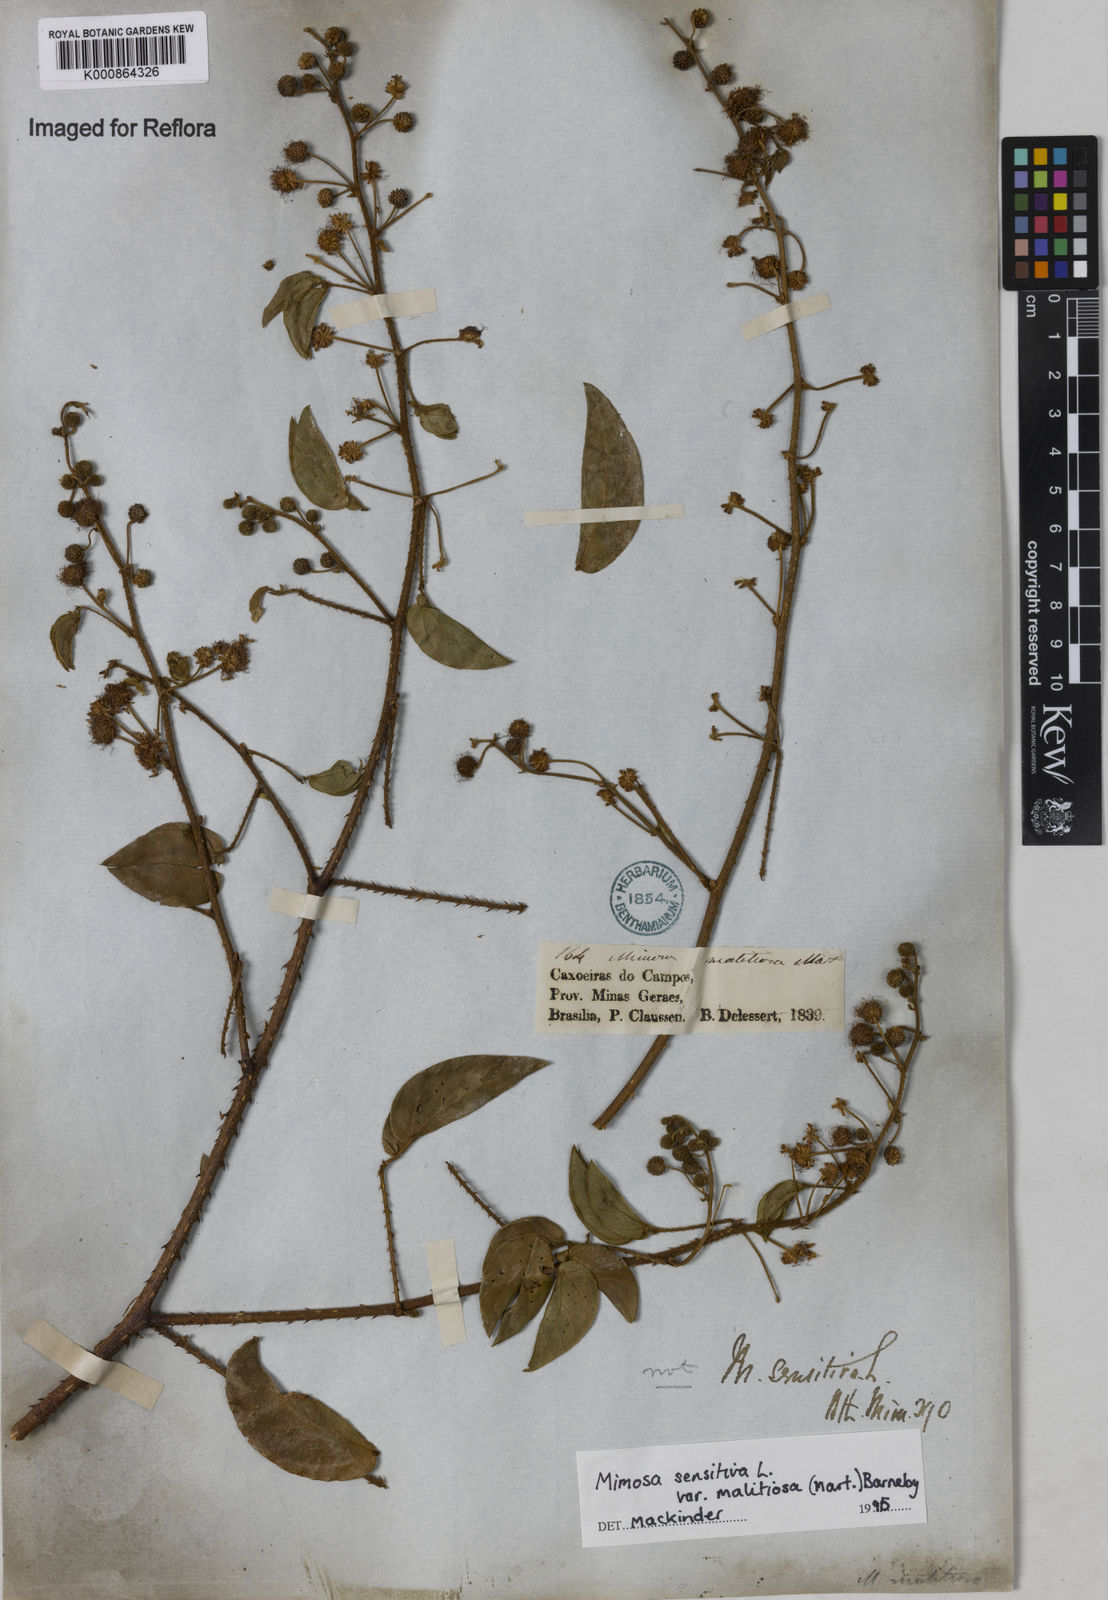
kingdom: Plantae
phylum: Tracheophyta
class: Magnoliopsida
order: Fabales
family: Fabaceae
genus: Mimosa
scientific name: Mimosa sensitiva
